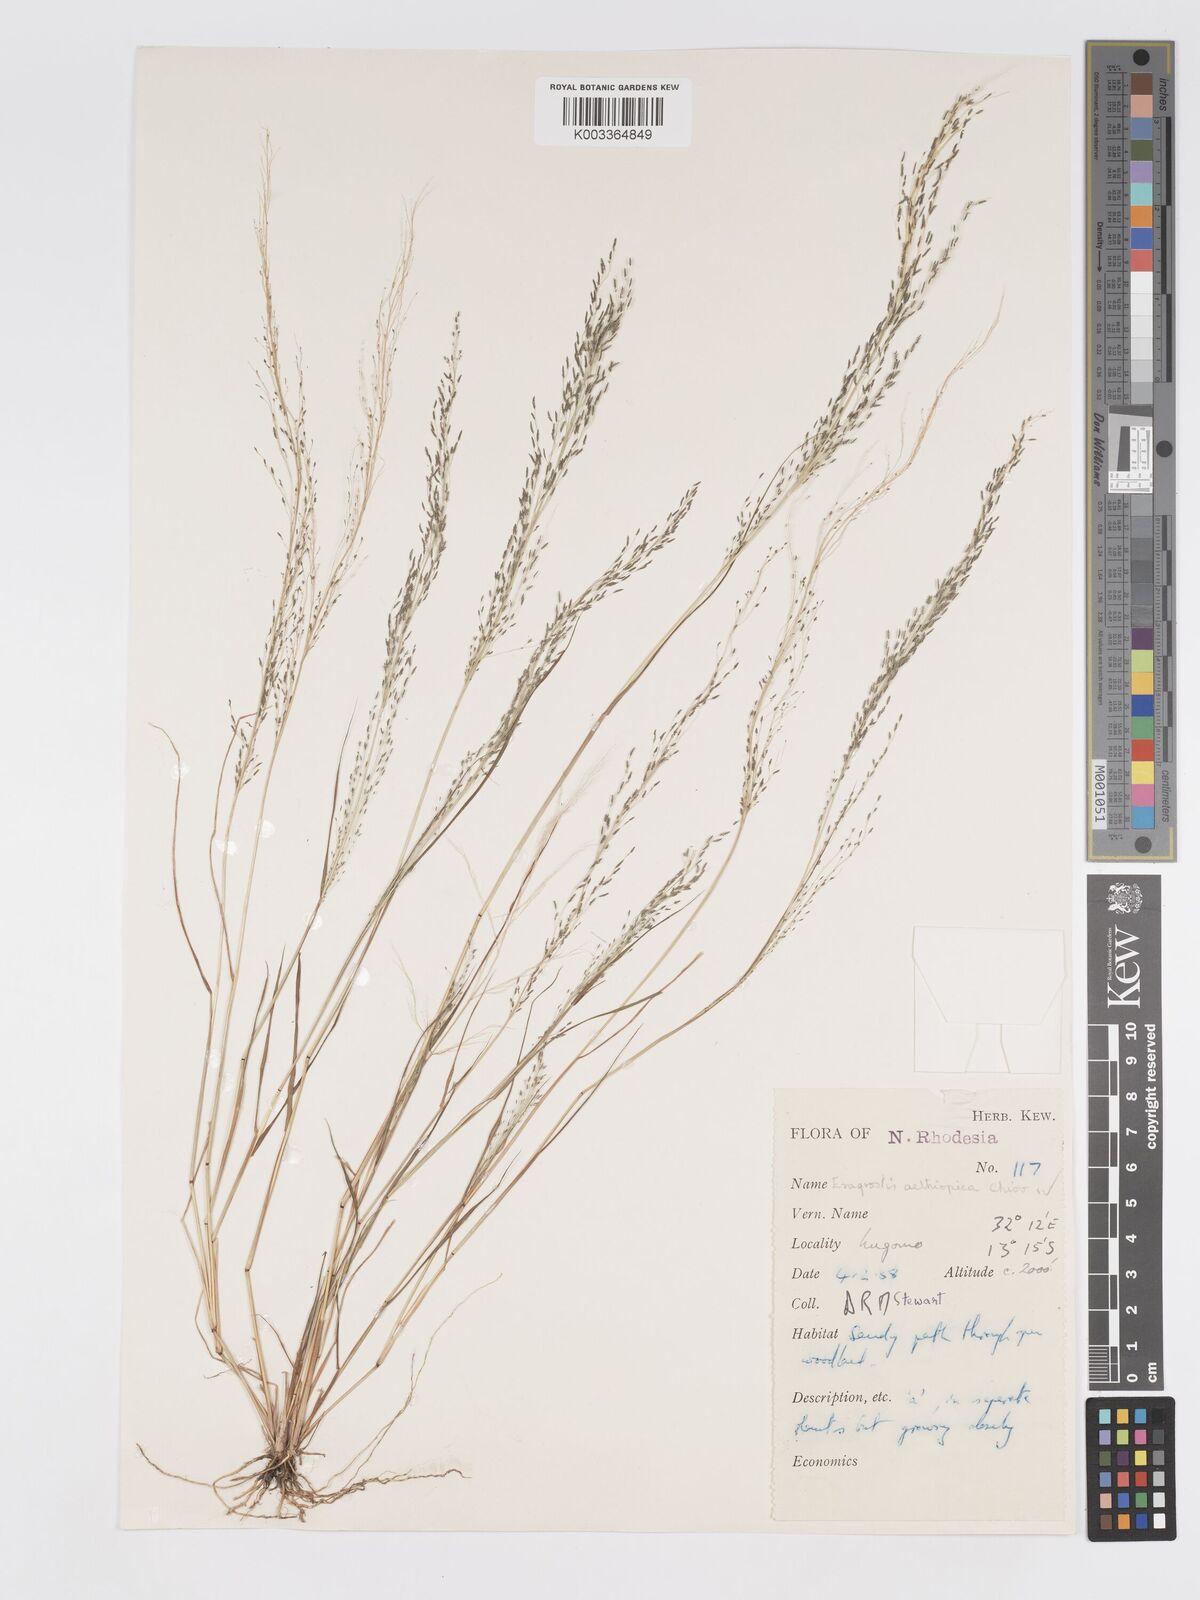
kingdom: Plantae
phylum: Tracheophyta
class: Liliopsida
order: Poales
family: Poaceae
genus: Eragrostis
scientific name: Eragrostis aethiopica
